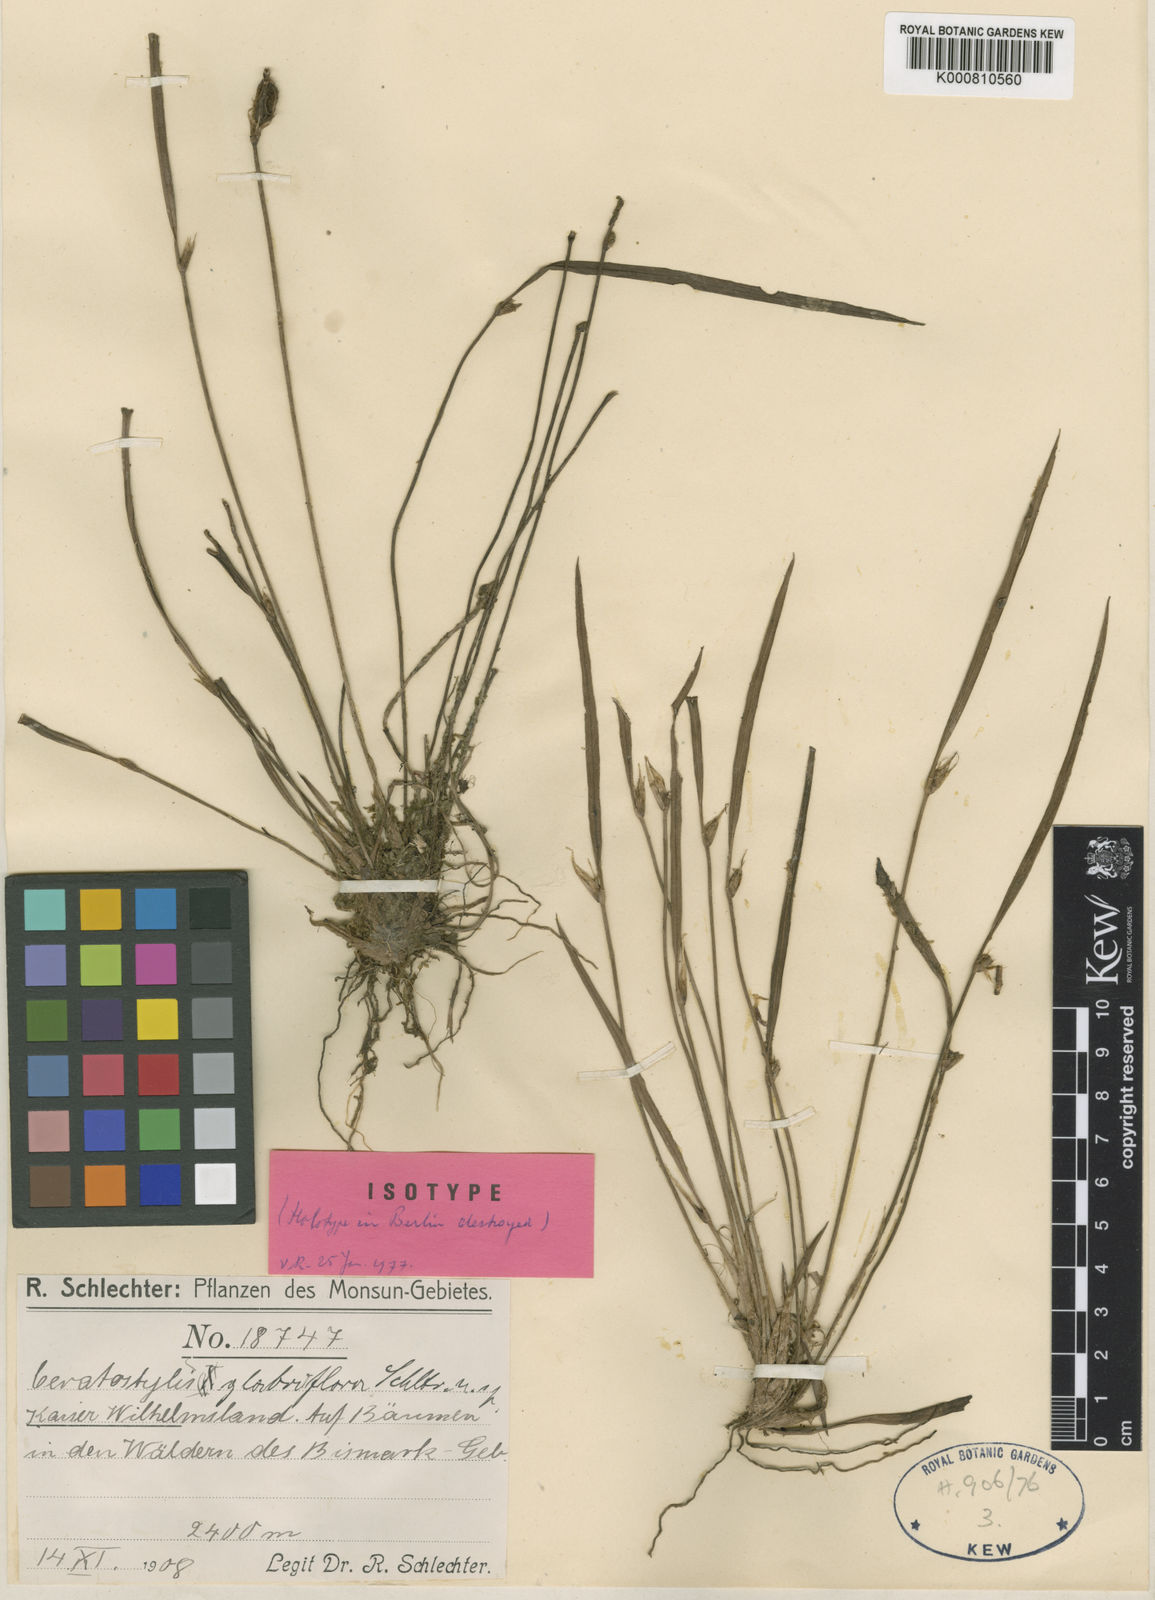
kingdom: Plantae
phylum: Tracheophyta
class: Liliopsida
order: Asparagales
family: Orchidaceae
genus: Ceratostylis
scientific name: Ceratostylis glabriflora
